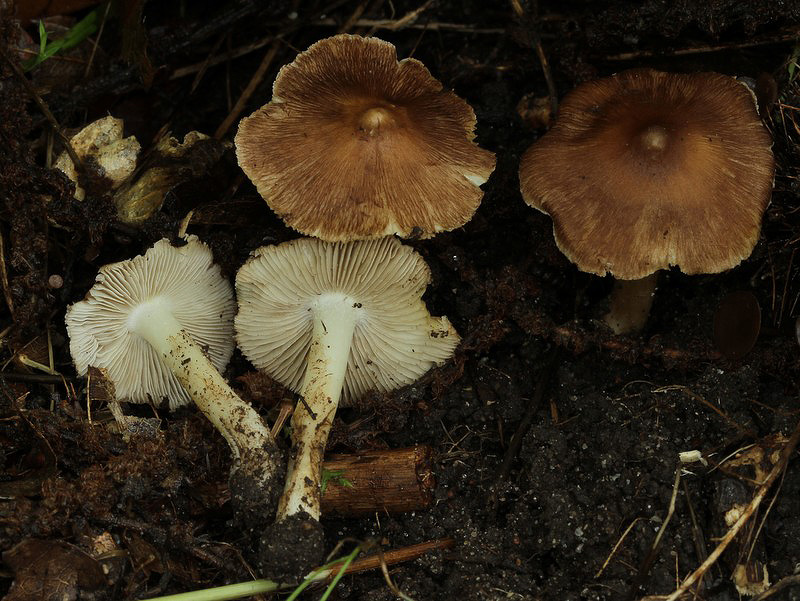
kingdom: Fungi
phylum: Basidiomycota
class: Agaricomycetes
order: Agaricales
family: Inocybaceae
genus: Inosperma
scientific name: Inosperma
